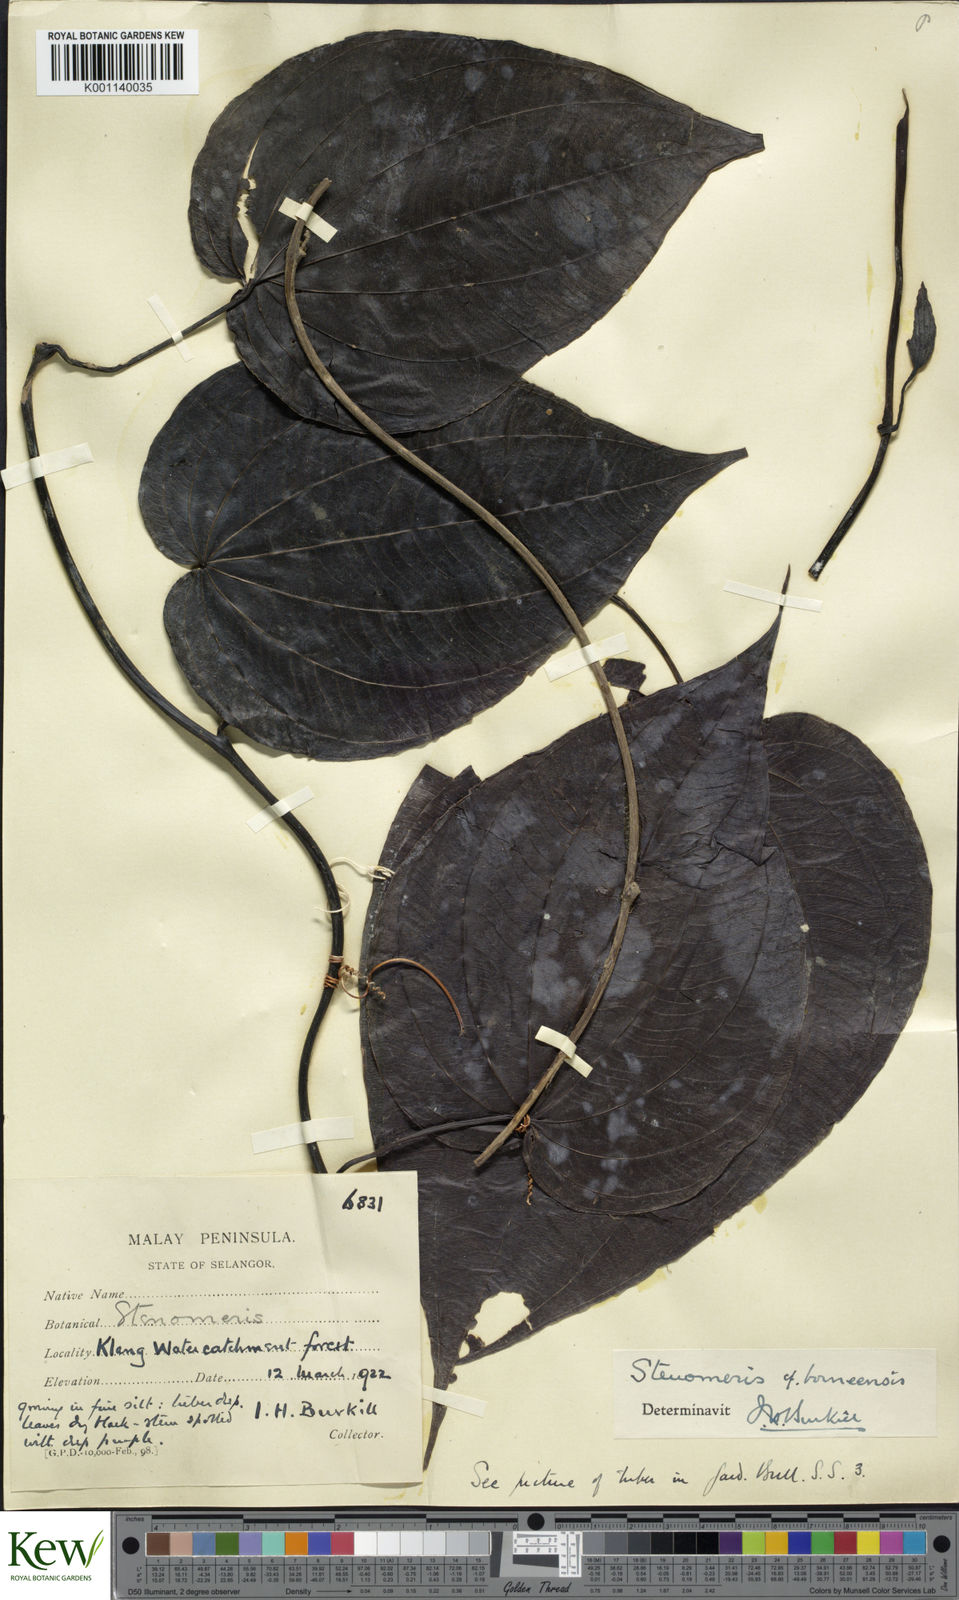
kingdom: Plantae
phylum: Tracheophyta
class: Liliopsida
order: Dioscoreales
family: Dioscoreaceae
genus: Stenomeris
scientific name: Stenomeris borneensis
